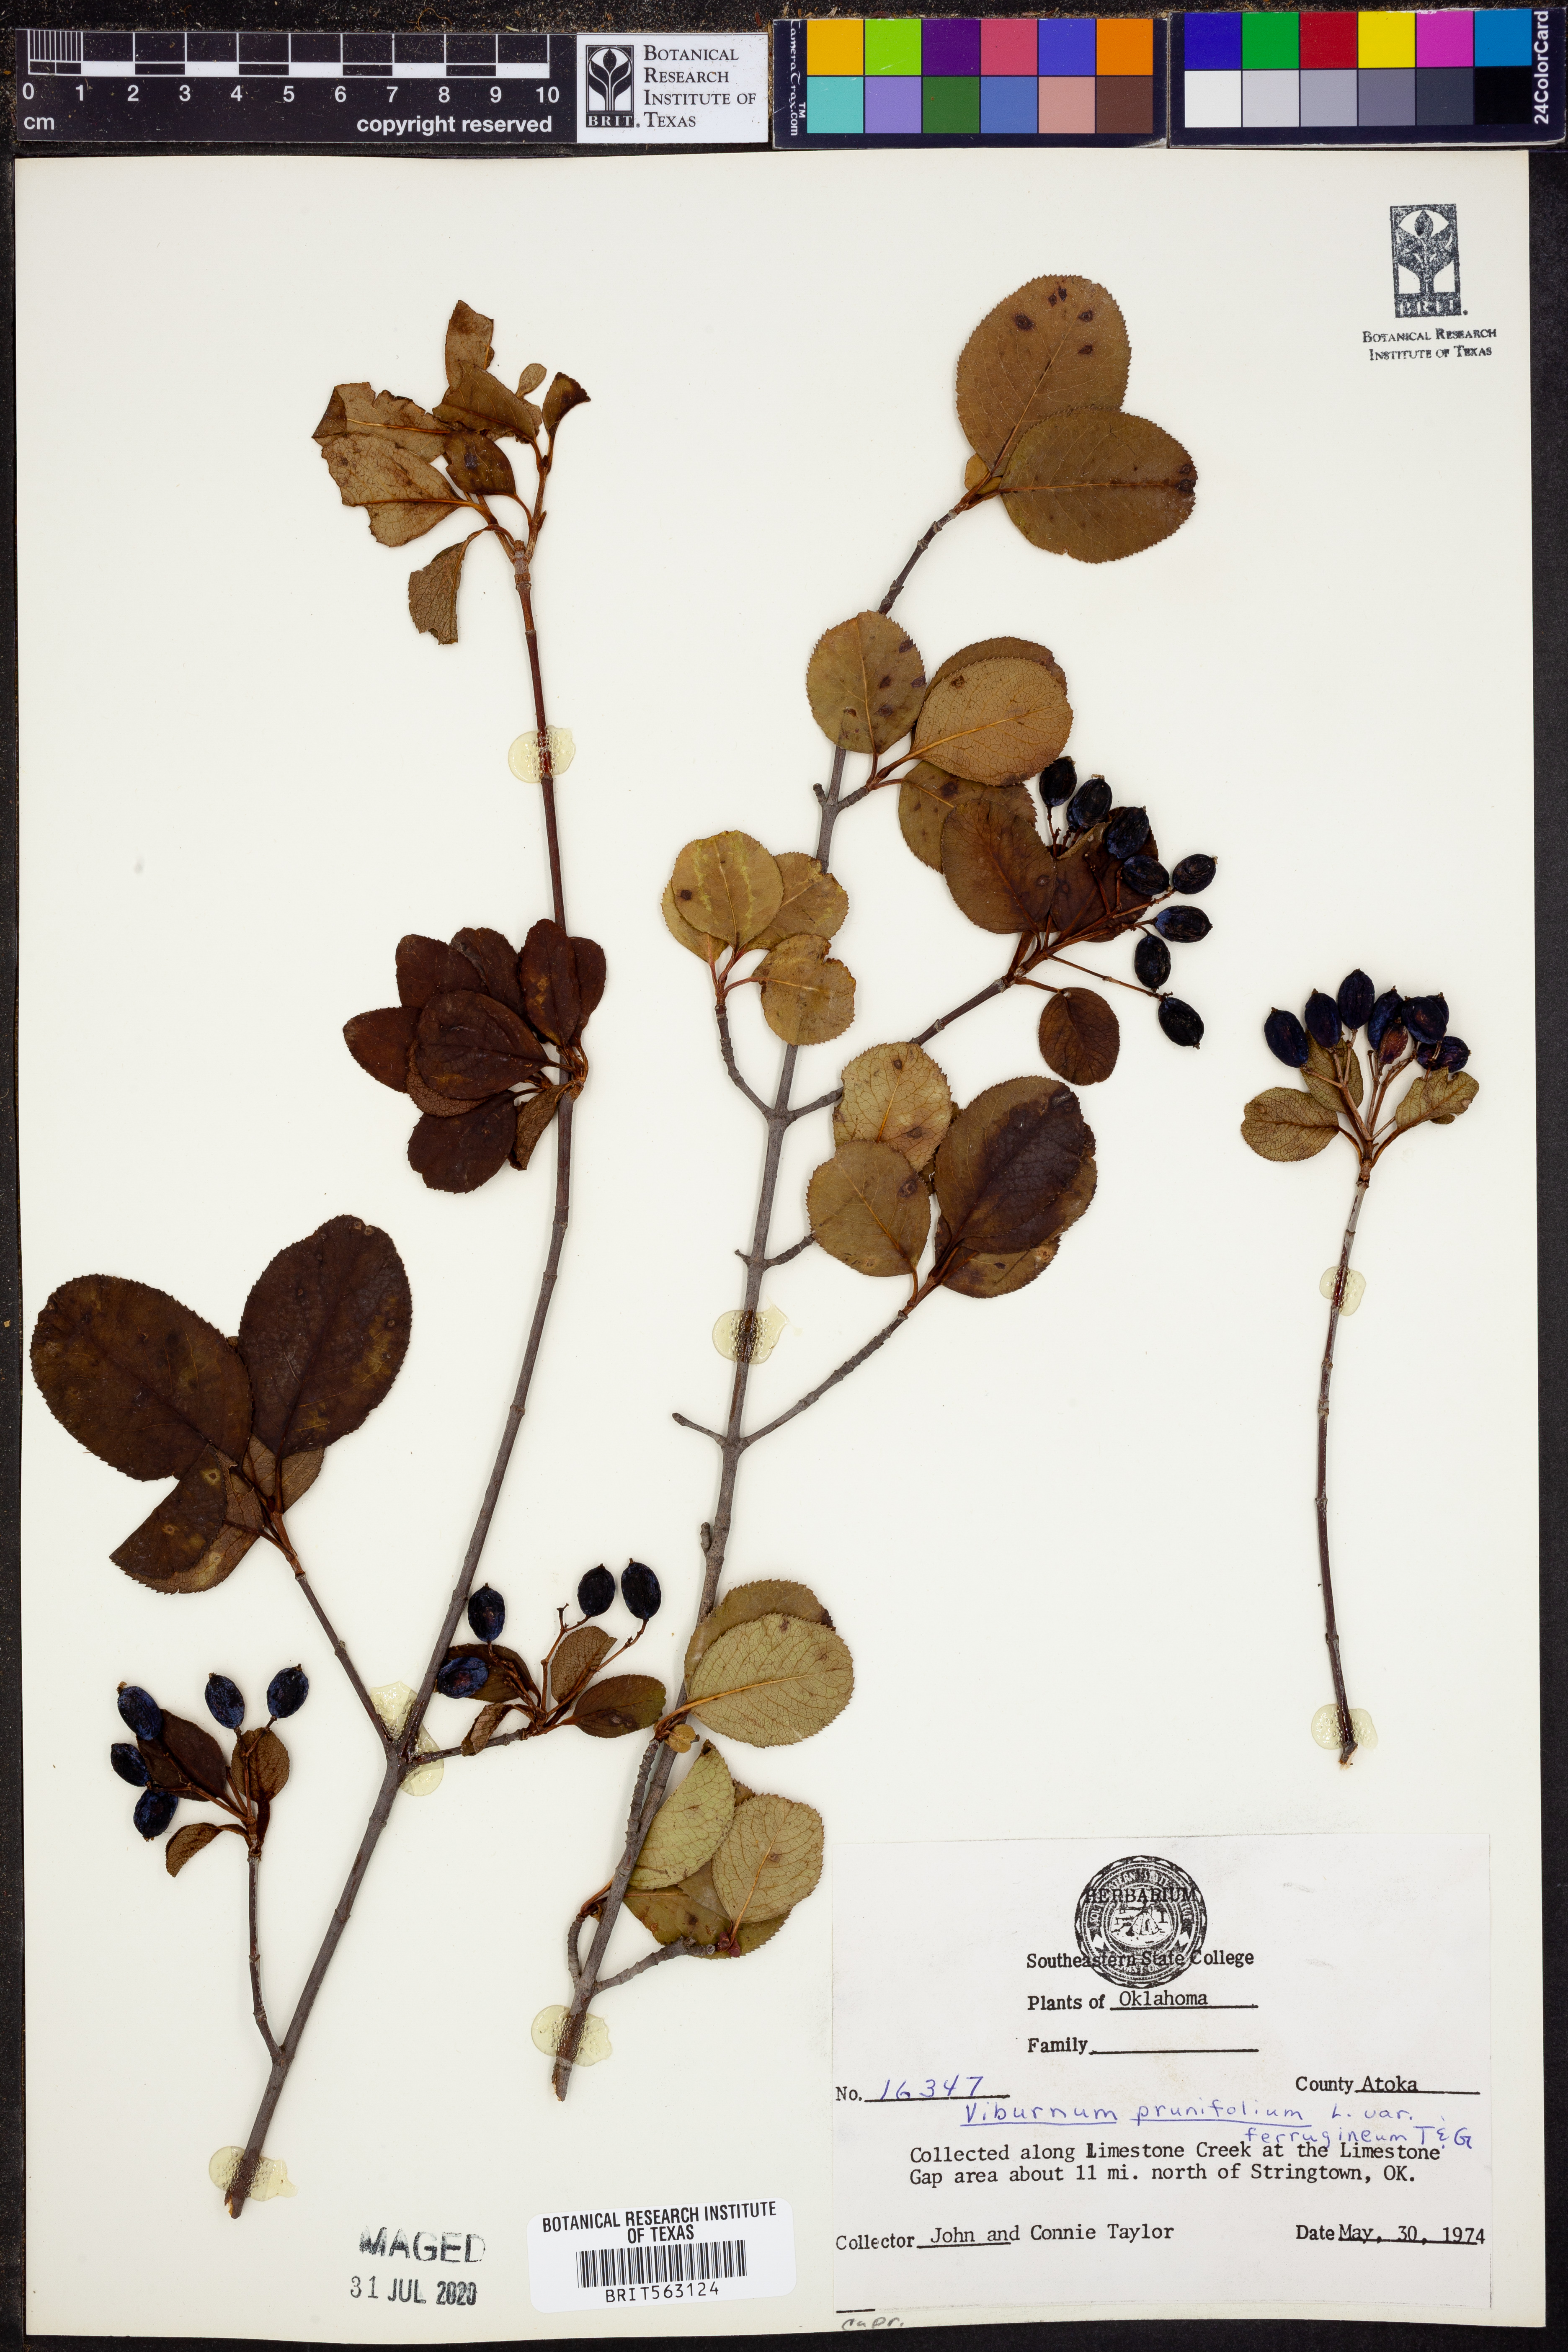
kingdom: Plantae
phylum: Tracheophyta
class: Magnoliopsida
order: Dipsacales
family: Viburnaceae
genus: Viburnum
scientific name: Viburnum prunifolium
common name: Black haw
